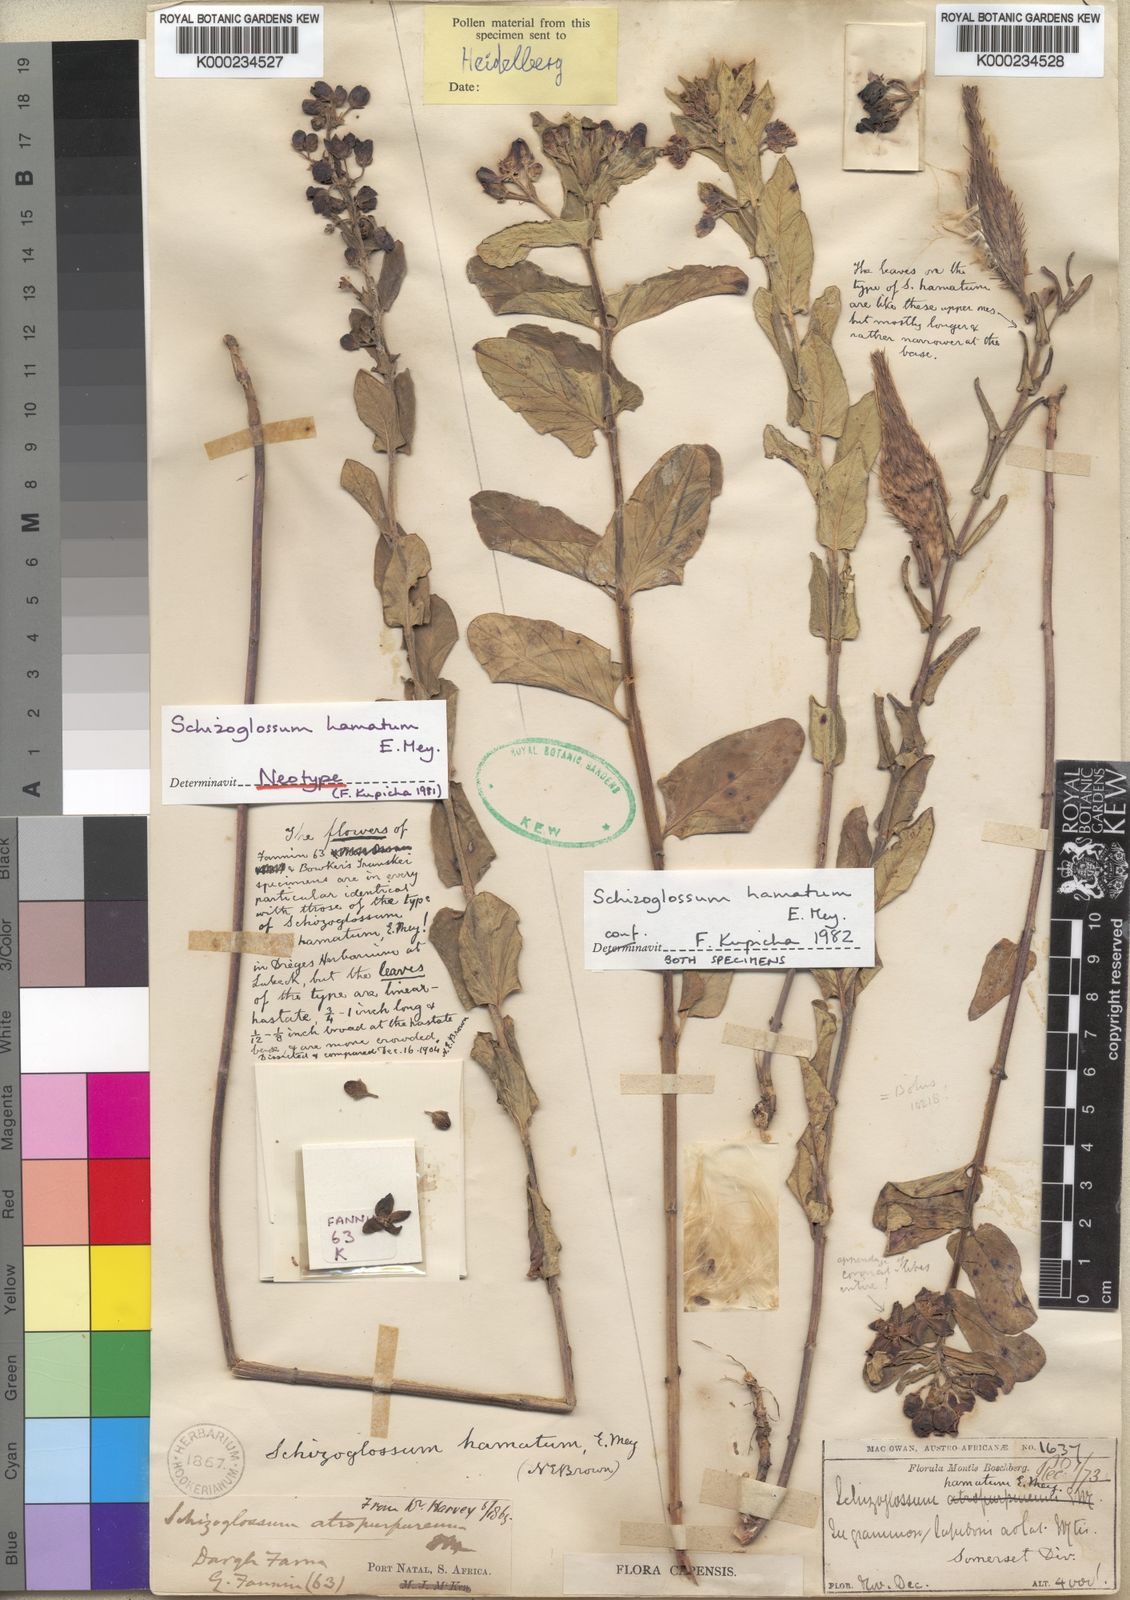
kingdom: Plantae
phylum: Tracheophyta
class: Magnoliopsida
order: Gentianales
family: Apocynaceae
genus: Schizoglossum
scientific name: Schizoglossum hamatum
